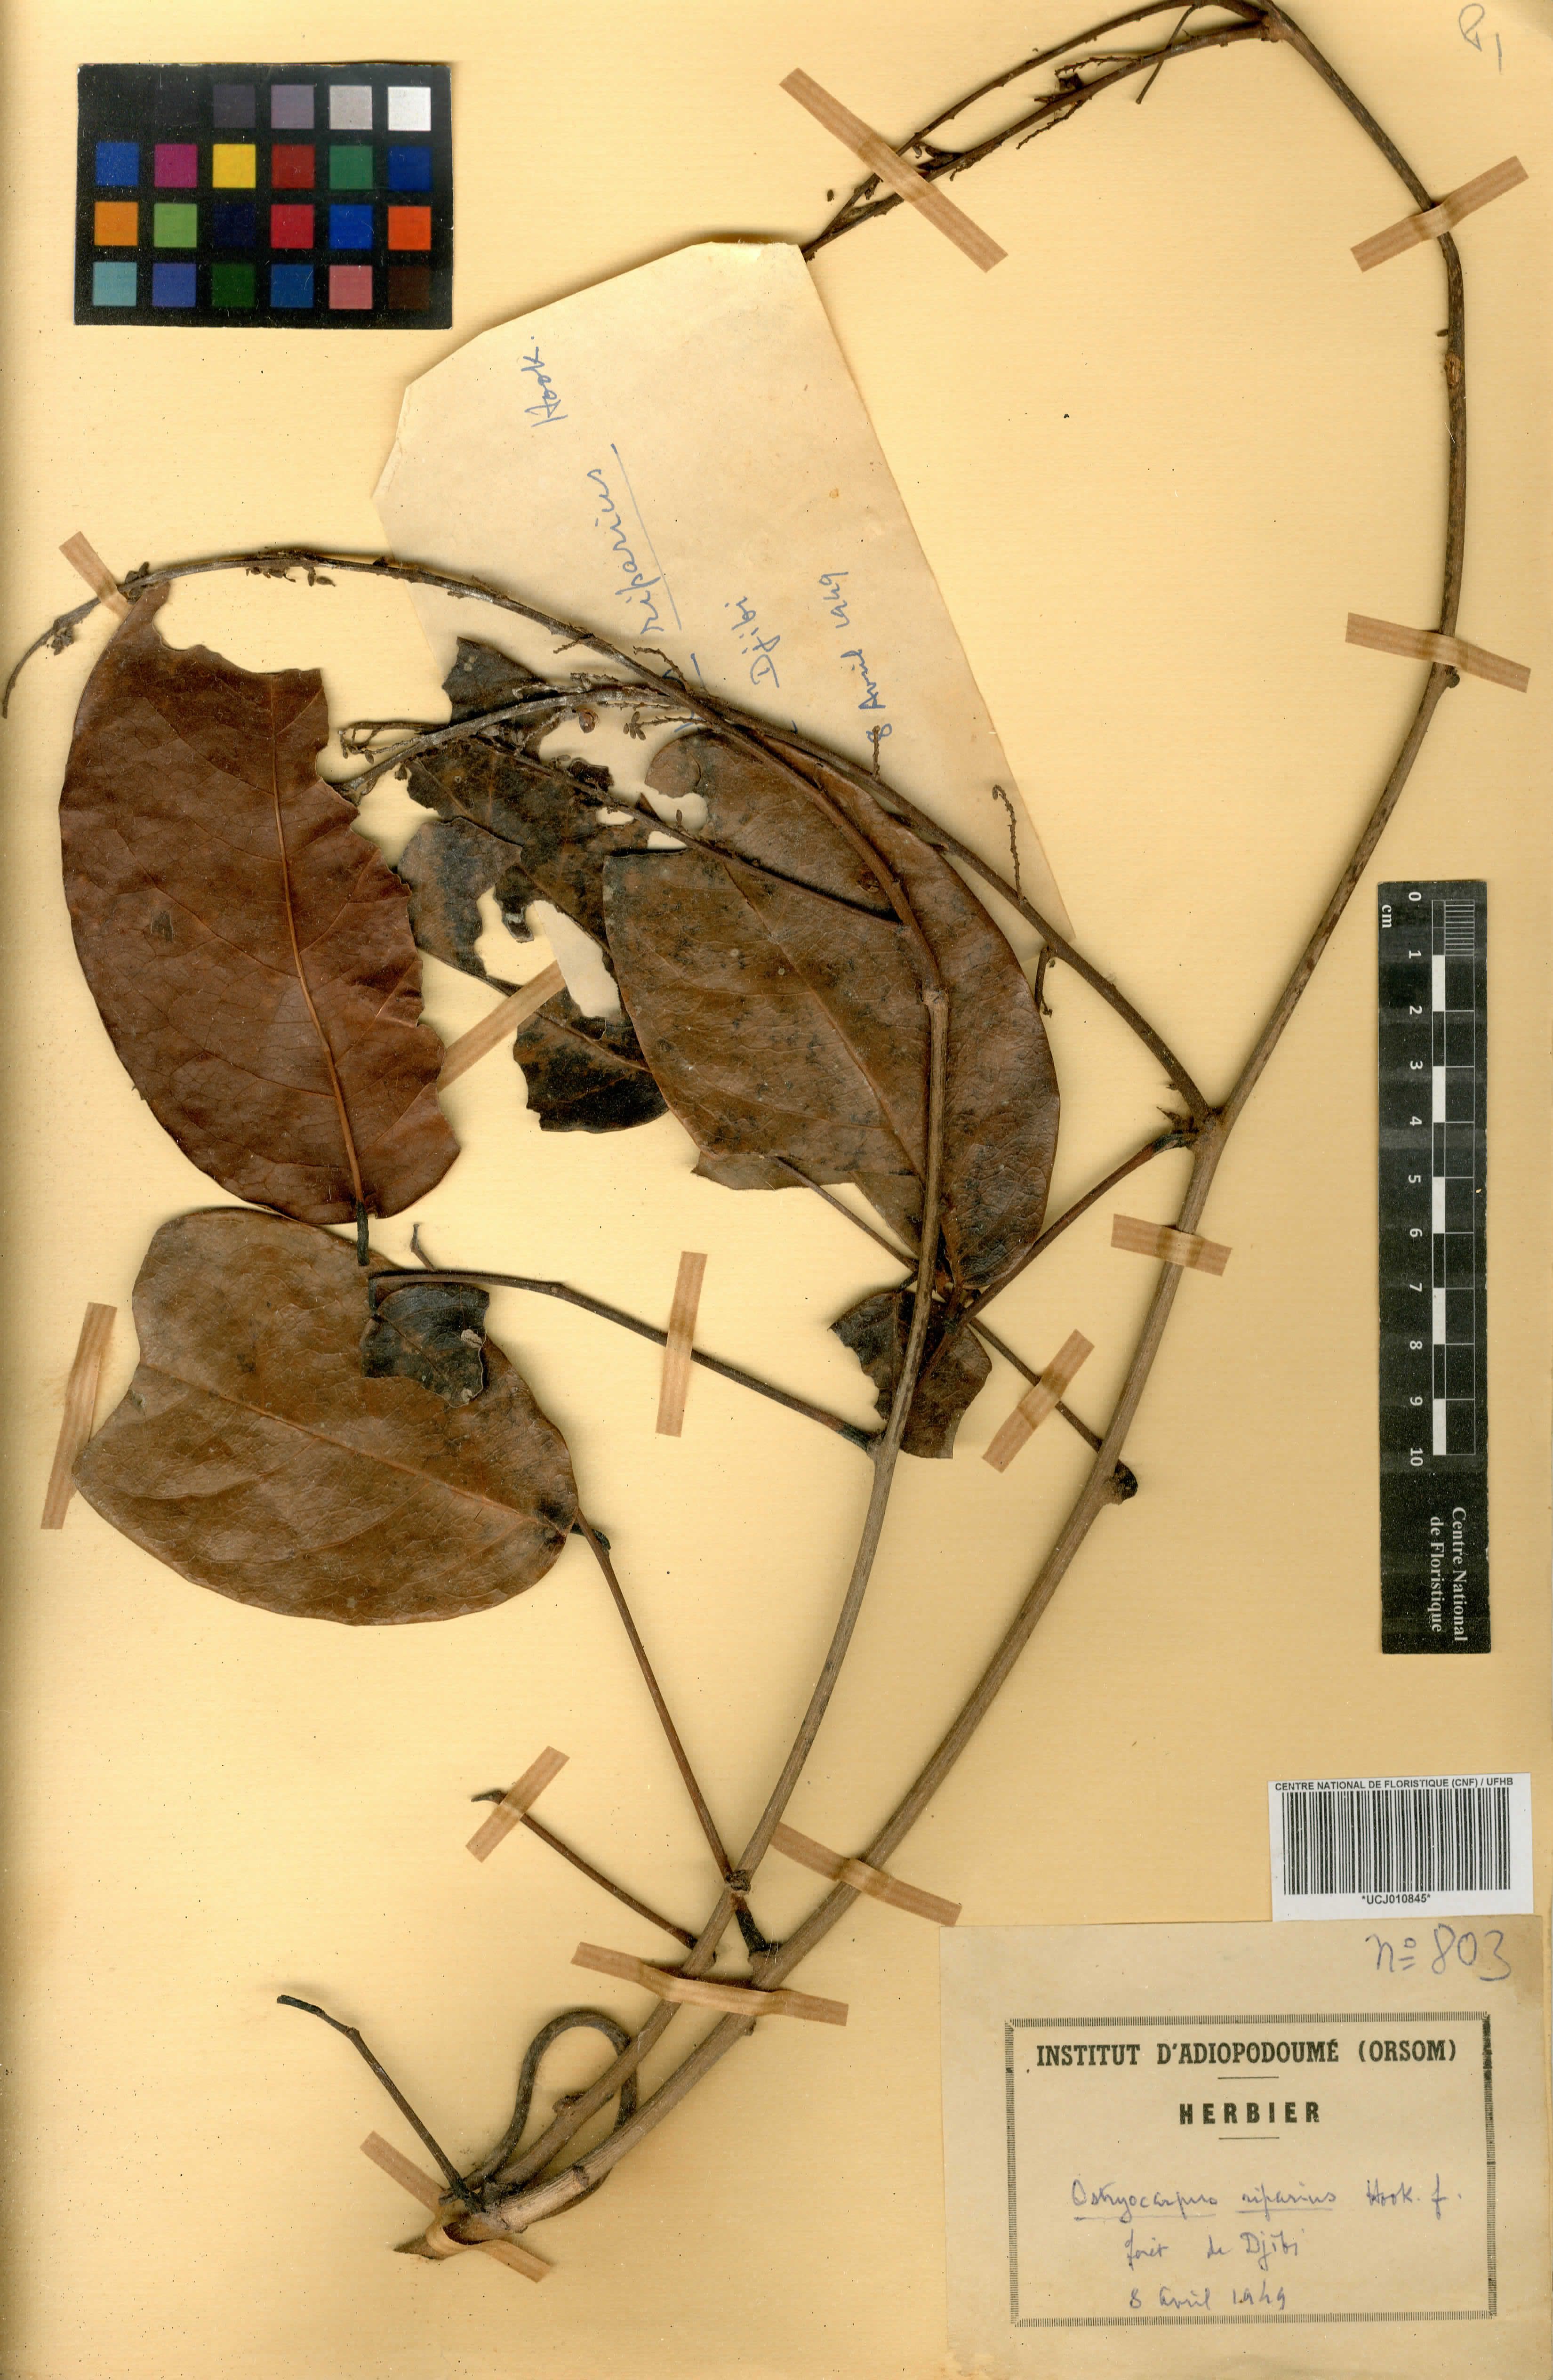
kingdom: Plantae
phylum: Tracheophyta
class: Magnoliopsida
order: Fabales
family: Fabaceae
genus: Ostryocarpus
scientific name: Ostryocarpus riparius
